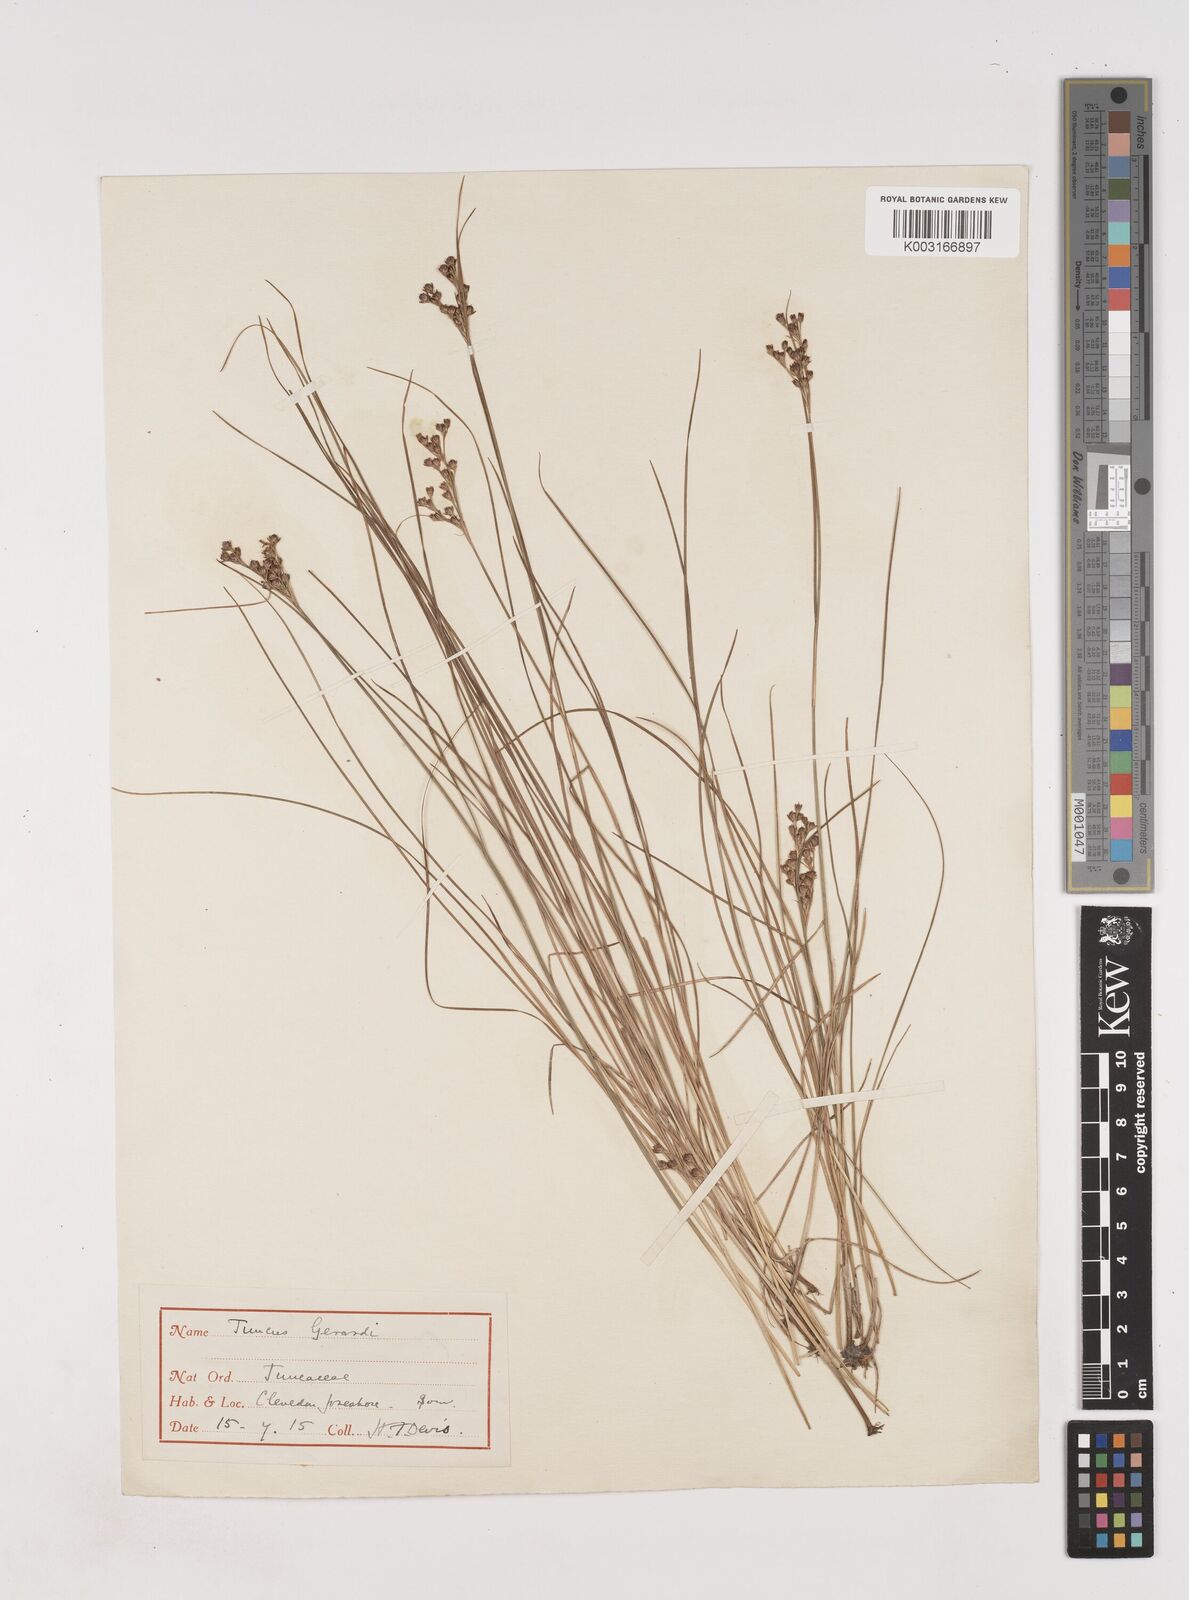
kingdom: Plantae
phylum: Tracheophyta
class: Liliopsida
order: Poales
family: Juncaceae
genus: Juncus
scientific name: Juncus gerardi
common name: Saltmarsh rush
